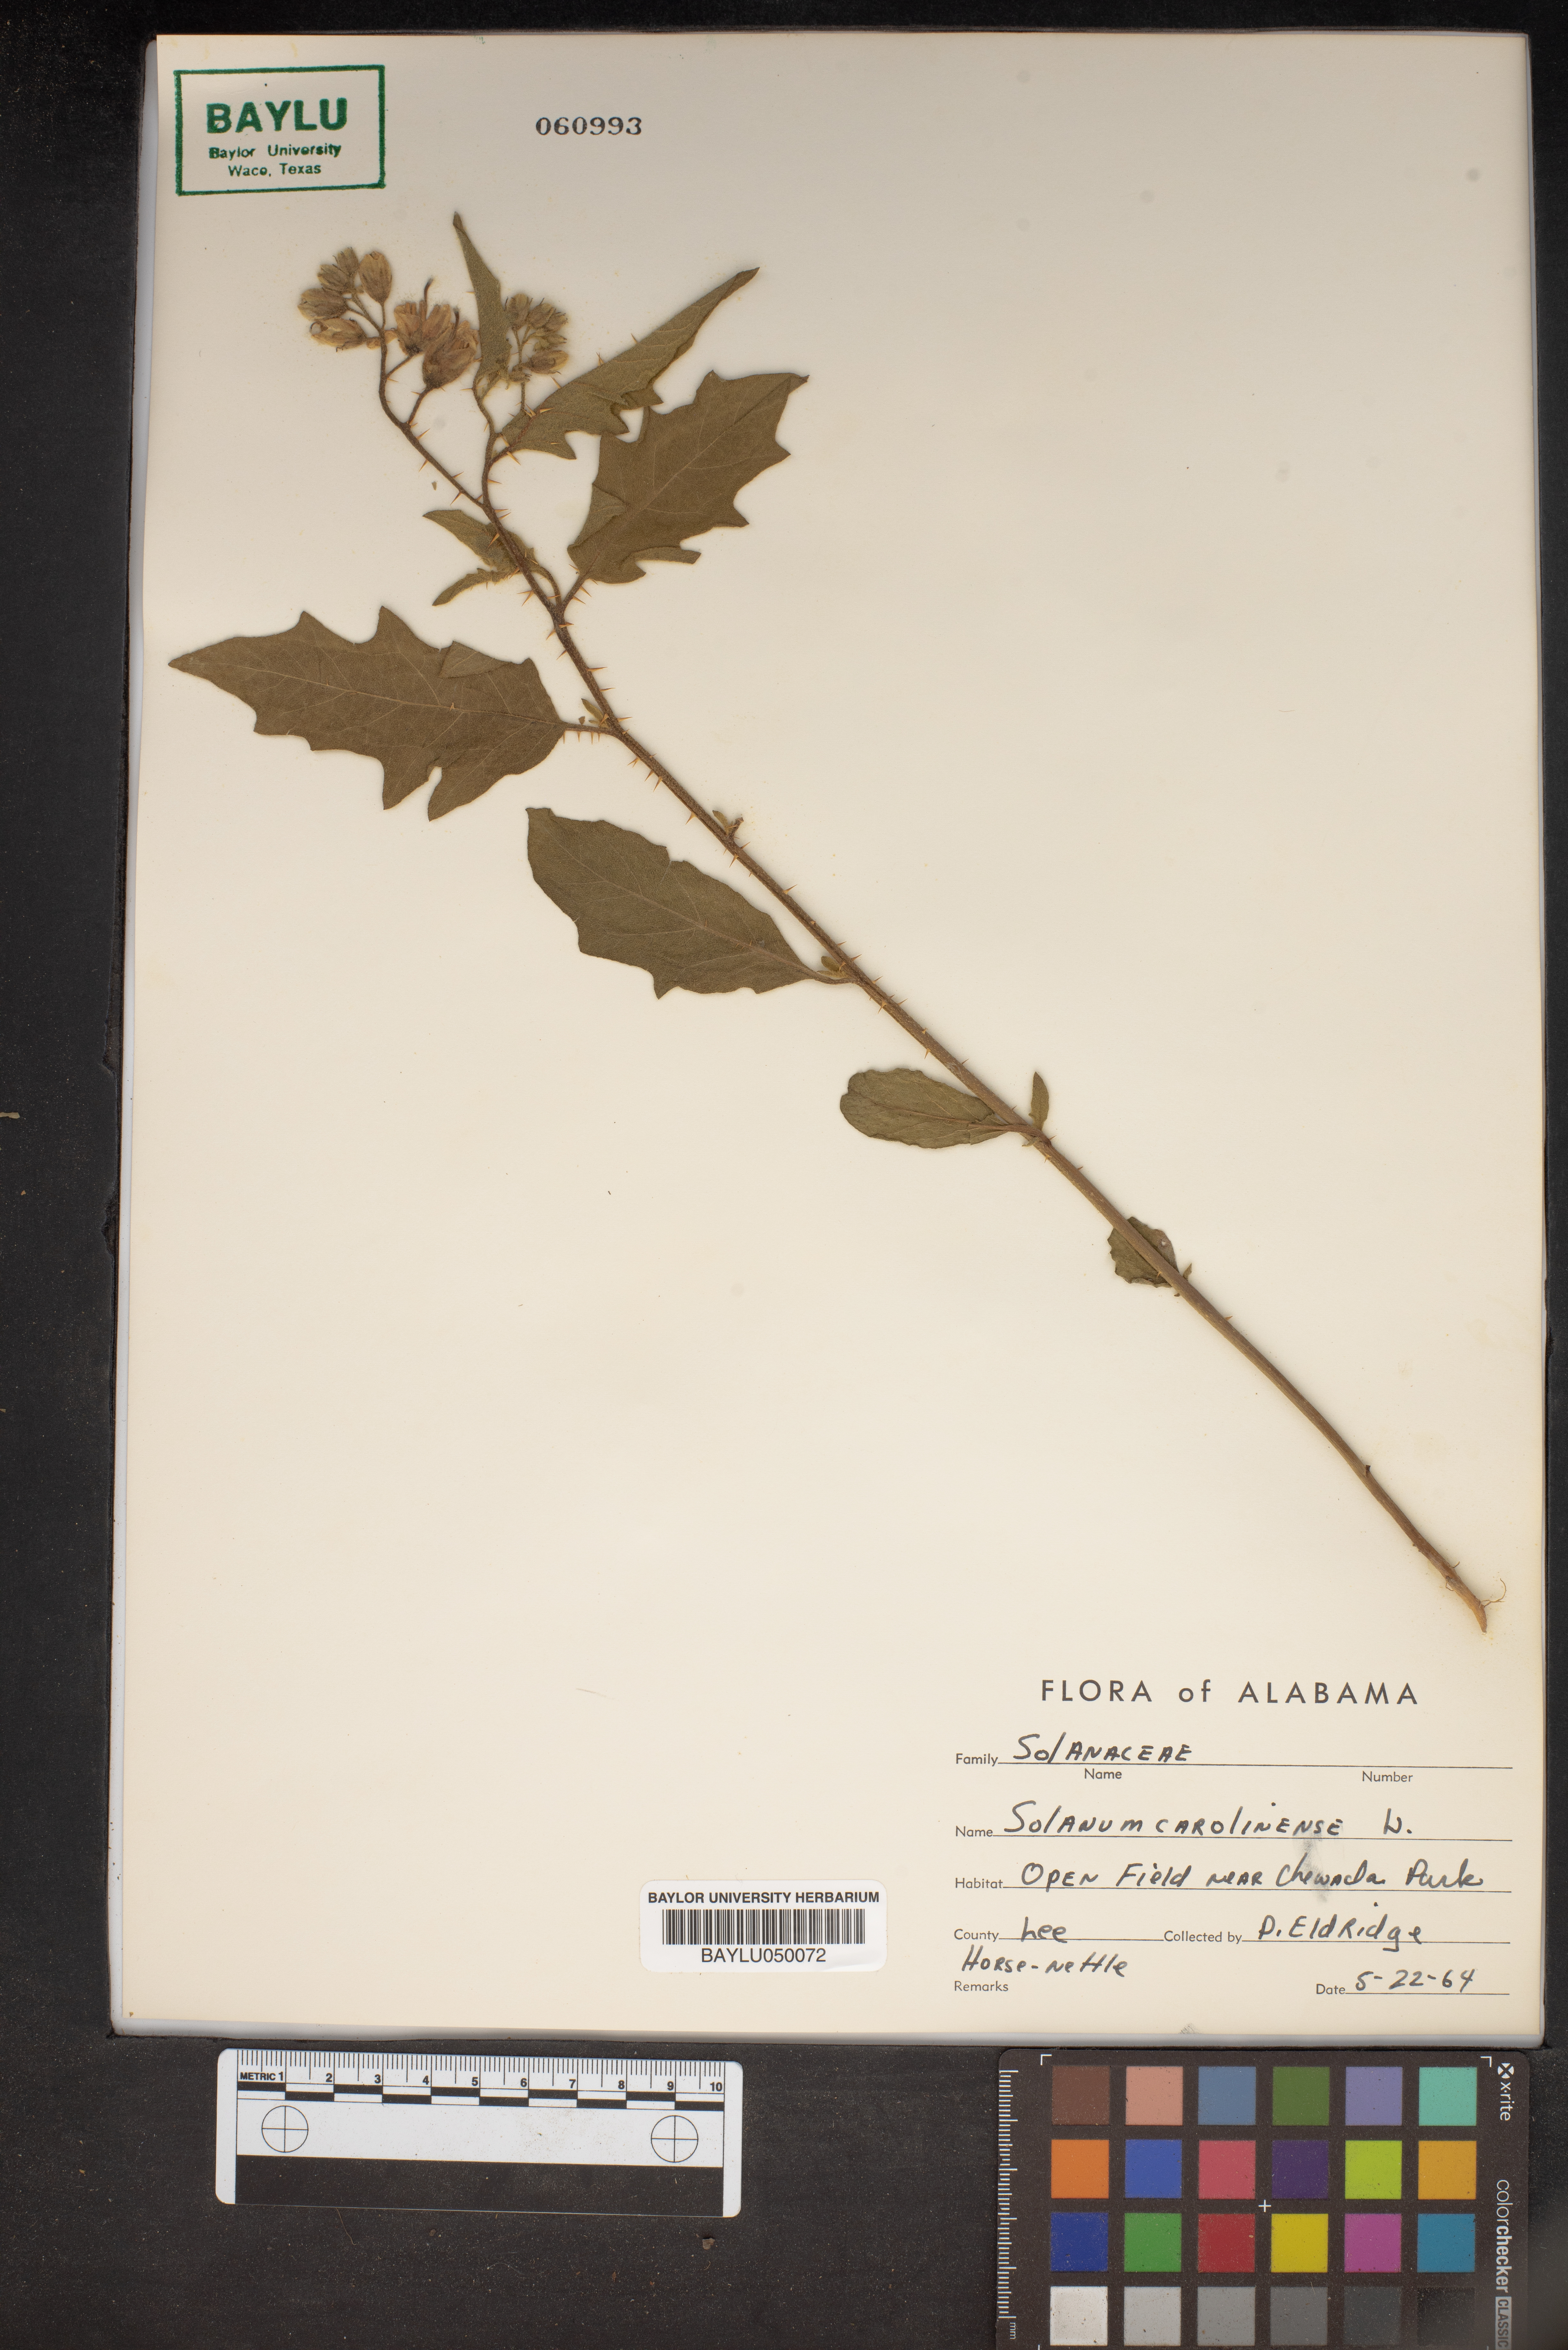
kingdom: Plantae
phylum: Tracheophyta
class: Magnoliopsida
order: Solanales
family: Solanaceae
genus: Solanum
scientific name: Solanum carolinense
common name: Horse-nettle
